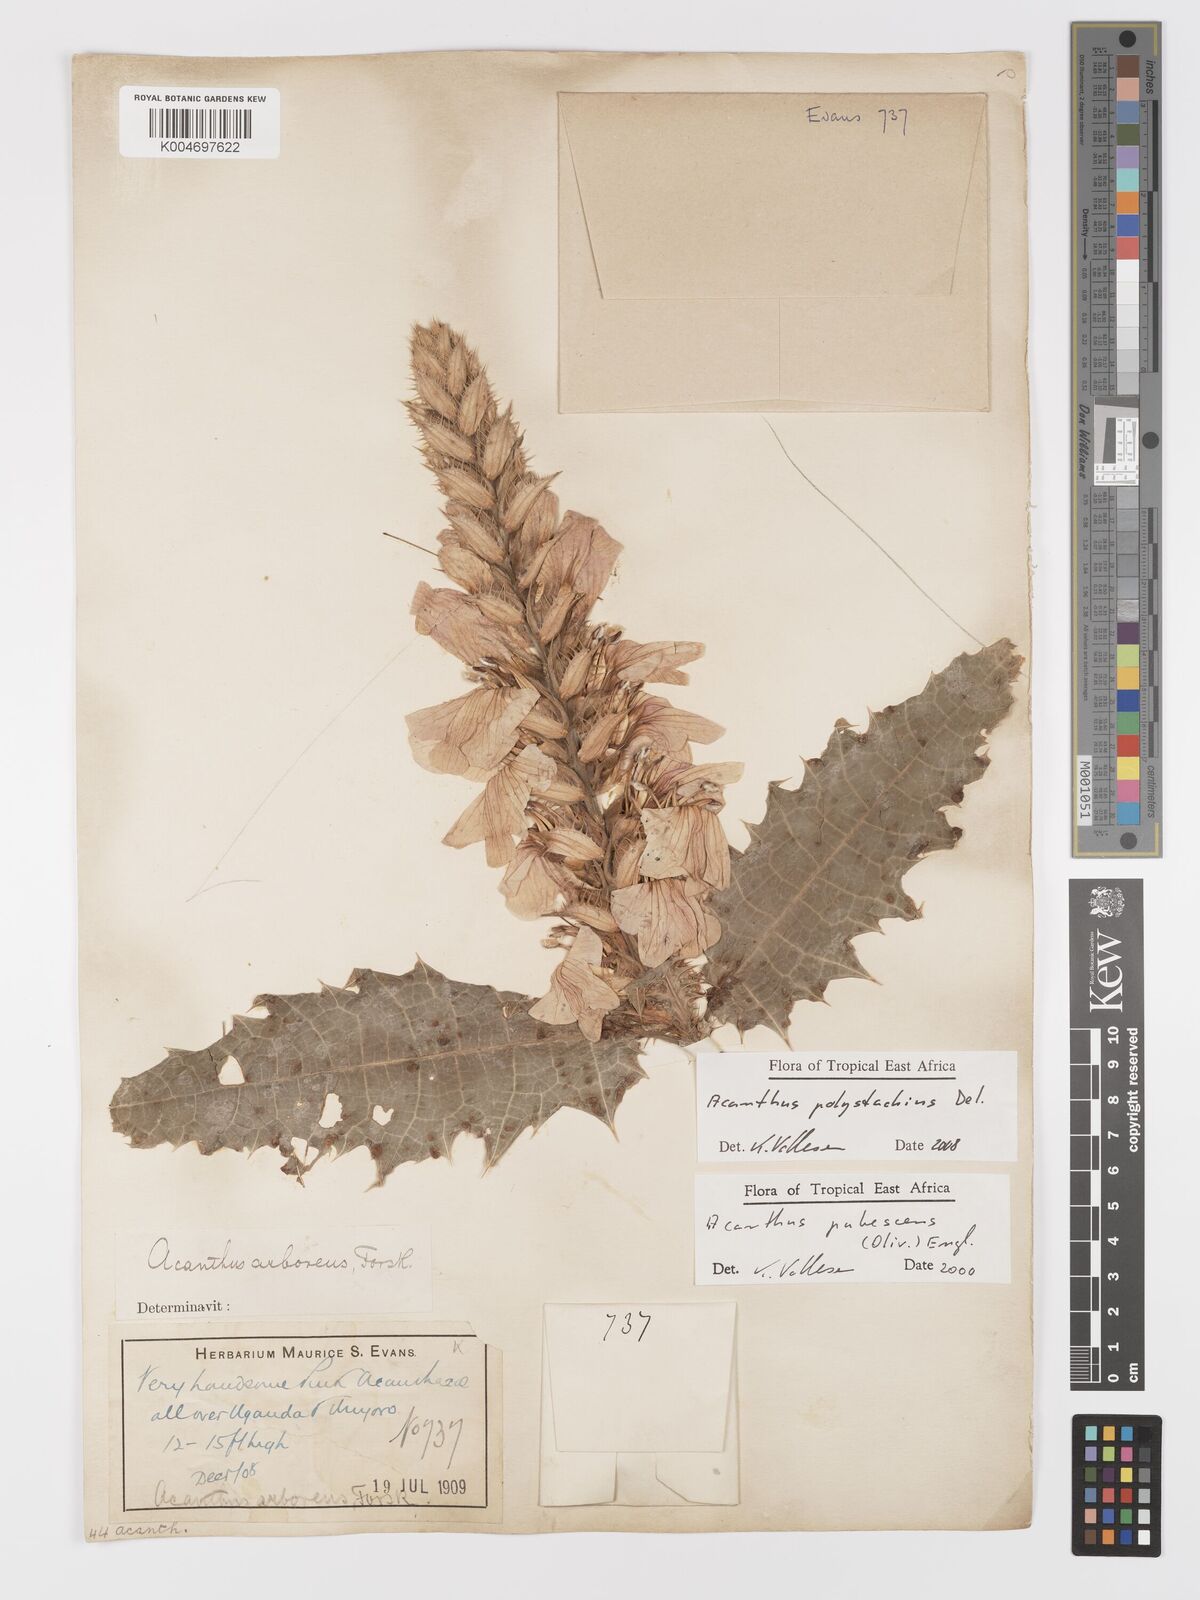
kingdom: Plantae
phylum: Tracheophyta
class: Magnoliopsida
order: Lamiales
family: Acanthaceae
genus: Acanthus
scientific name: Acanthus polystachyus
